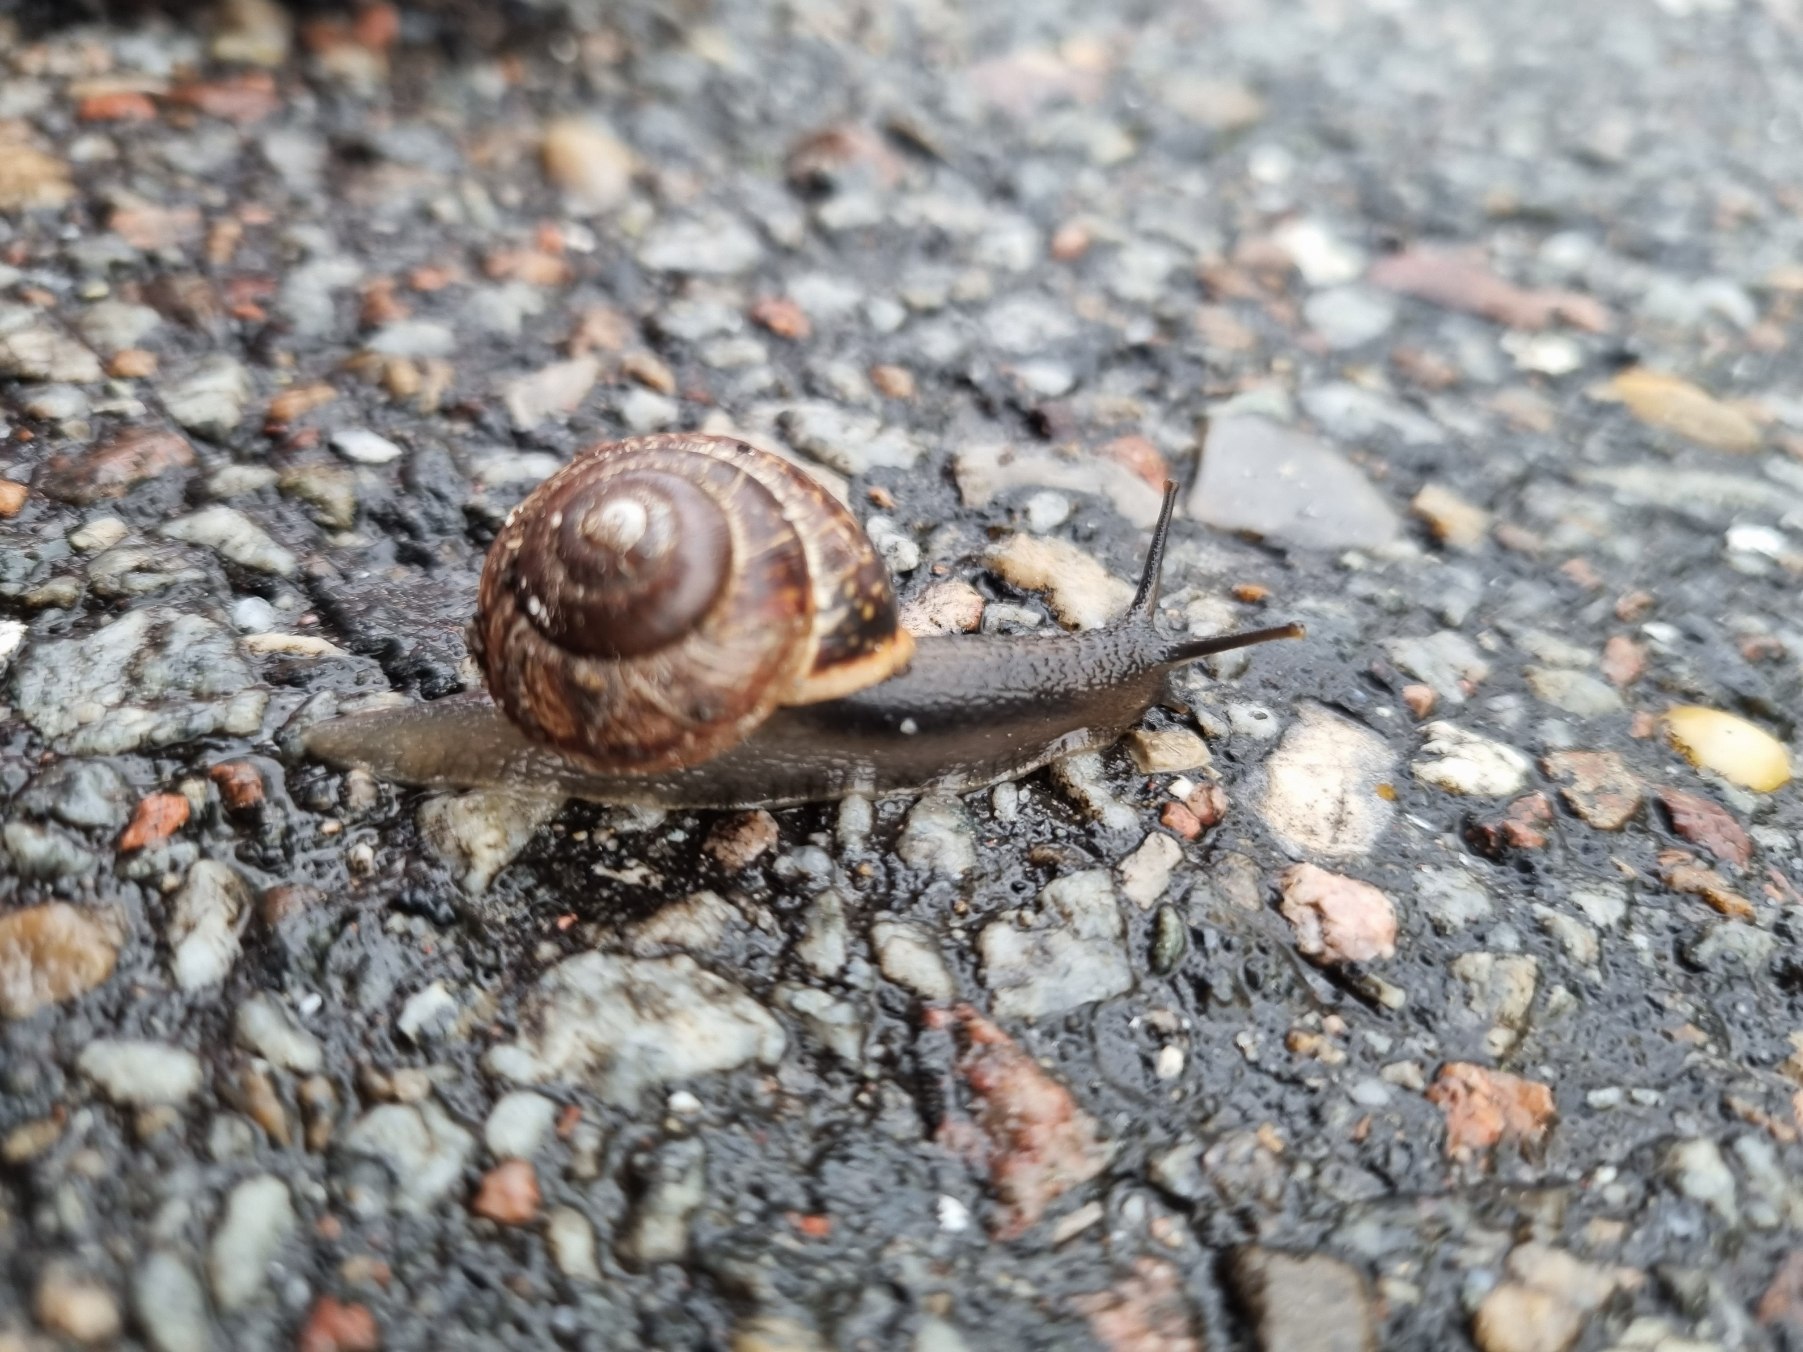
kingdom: Animalia
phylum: Mollusca
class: Gastropoda
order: Stylommatophora
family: Helicidae
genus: Arianta
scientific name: Arianta arbustorum
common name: Kratsnegl
